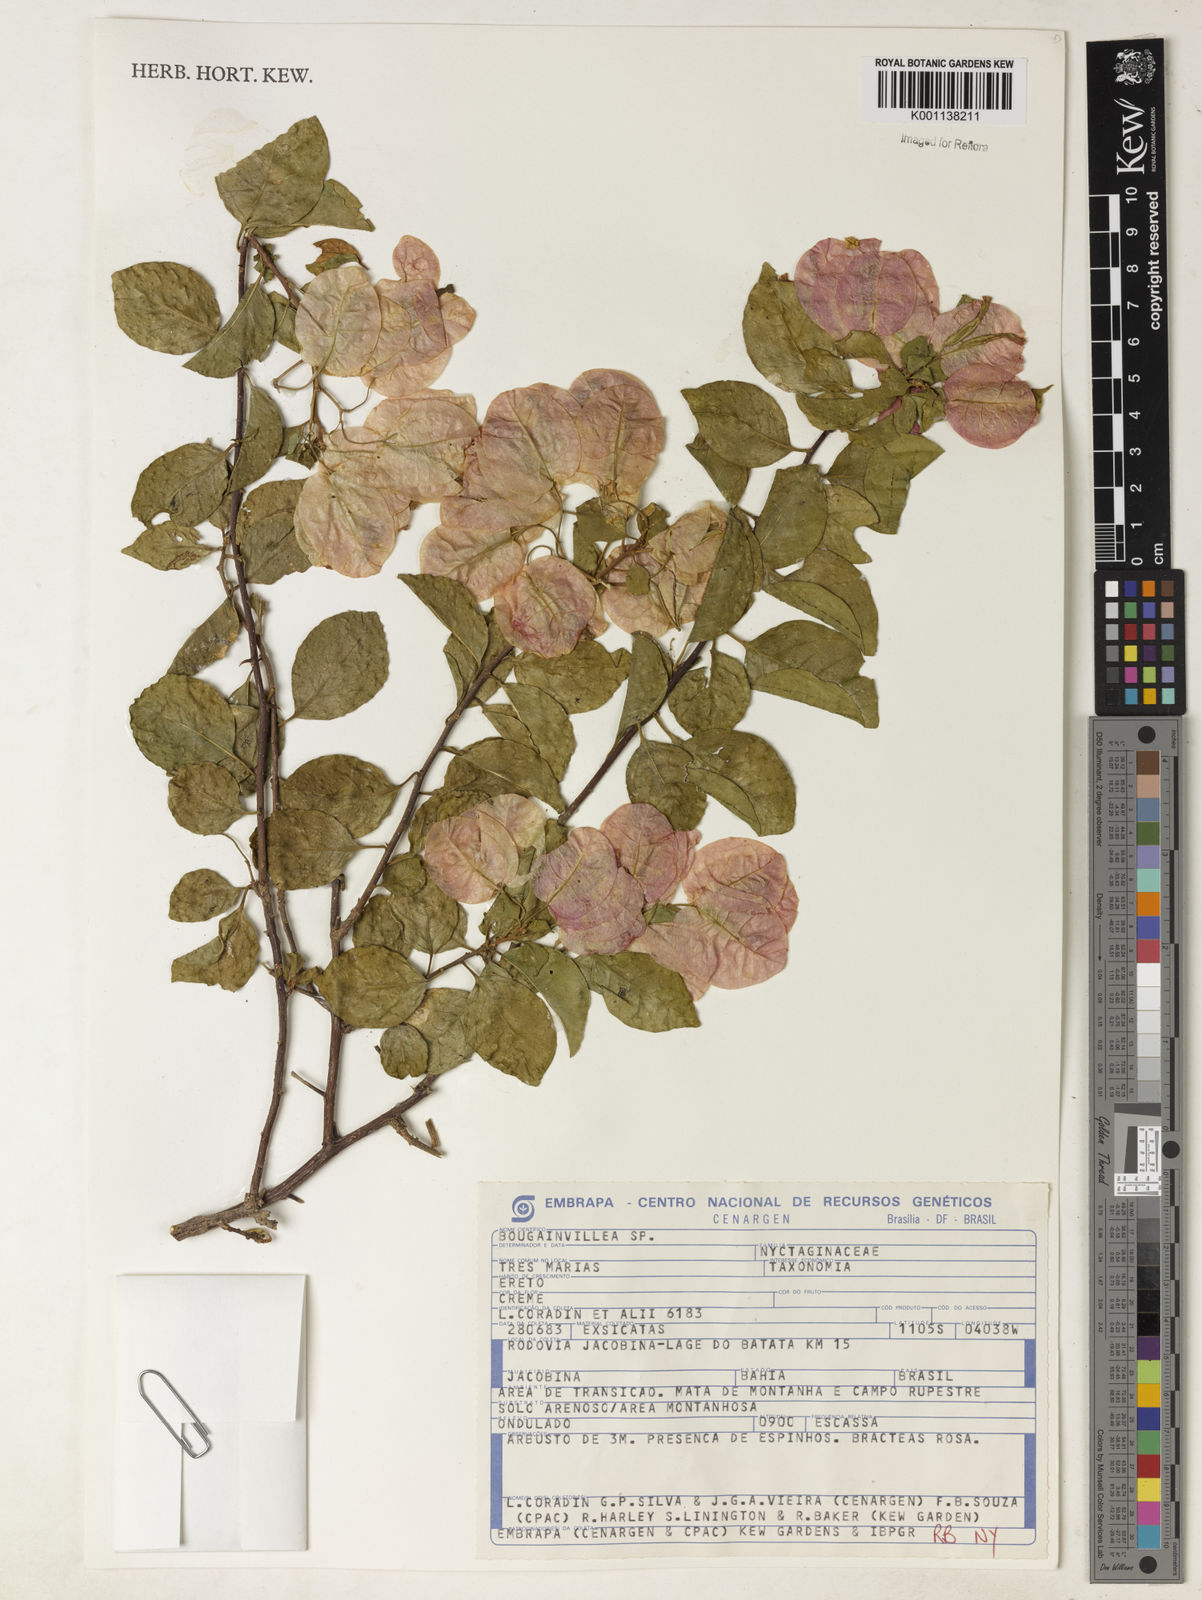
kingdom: Plantae
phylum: Tracheophyta
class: Magnoliopsida
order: Caryophyllales
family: Nyctaginaceae
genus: Bougainvillea
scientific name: Bougainvillea
